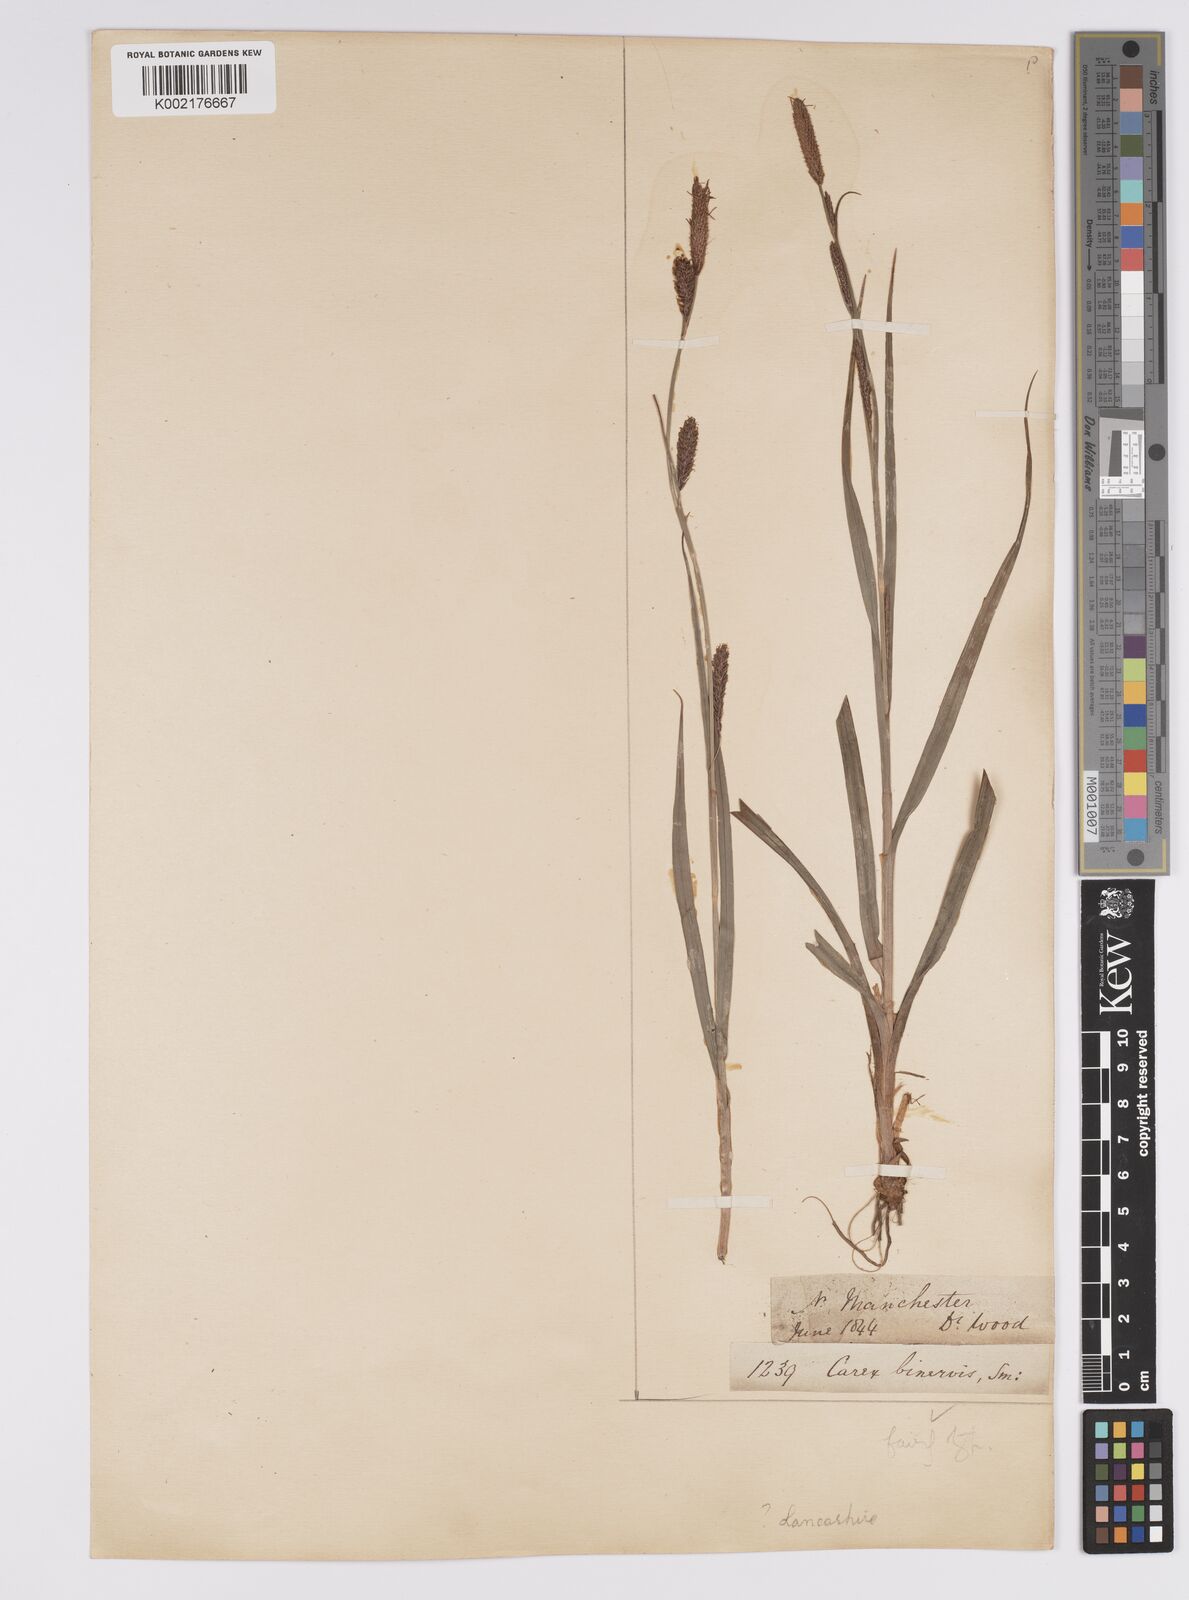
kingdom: Plantae
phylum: Tracheophyta
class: Liliopsida
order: Poales
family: Cyperaceae
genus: Carex
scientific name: Carex binervis
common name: Green-ribbed sedge
